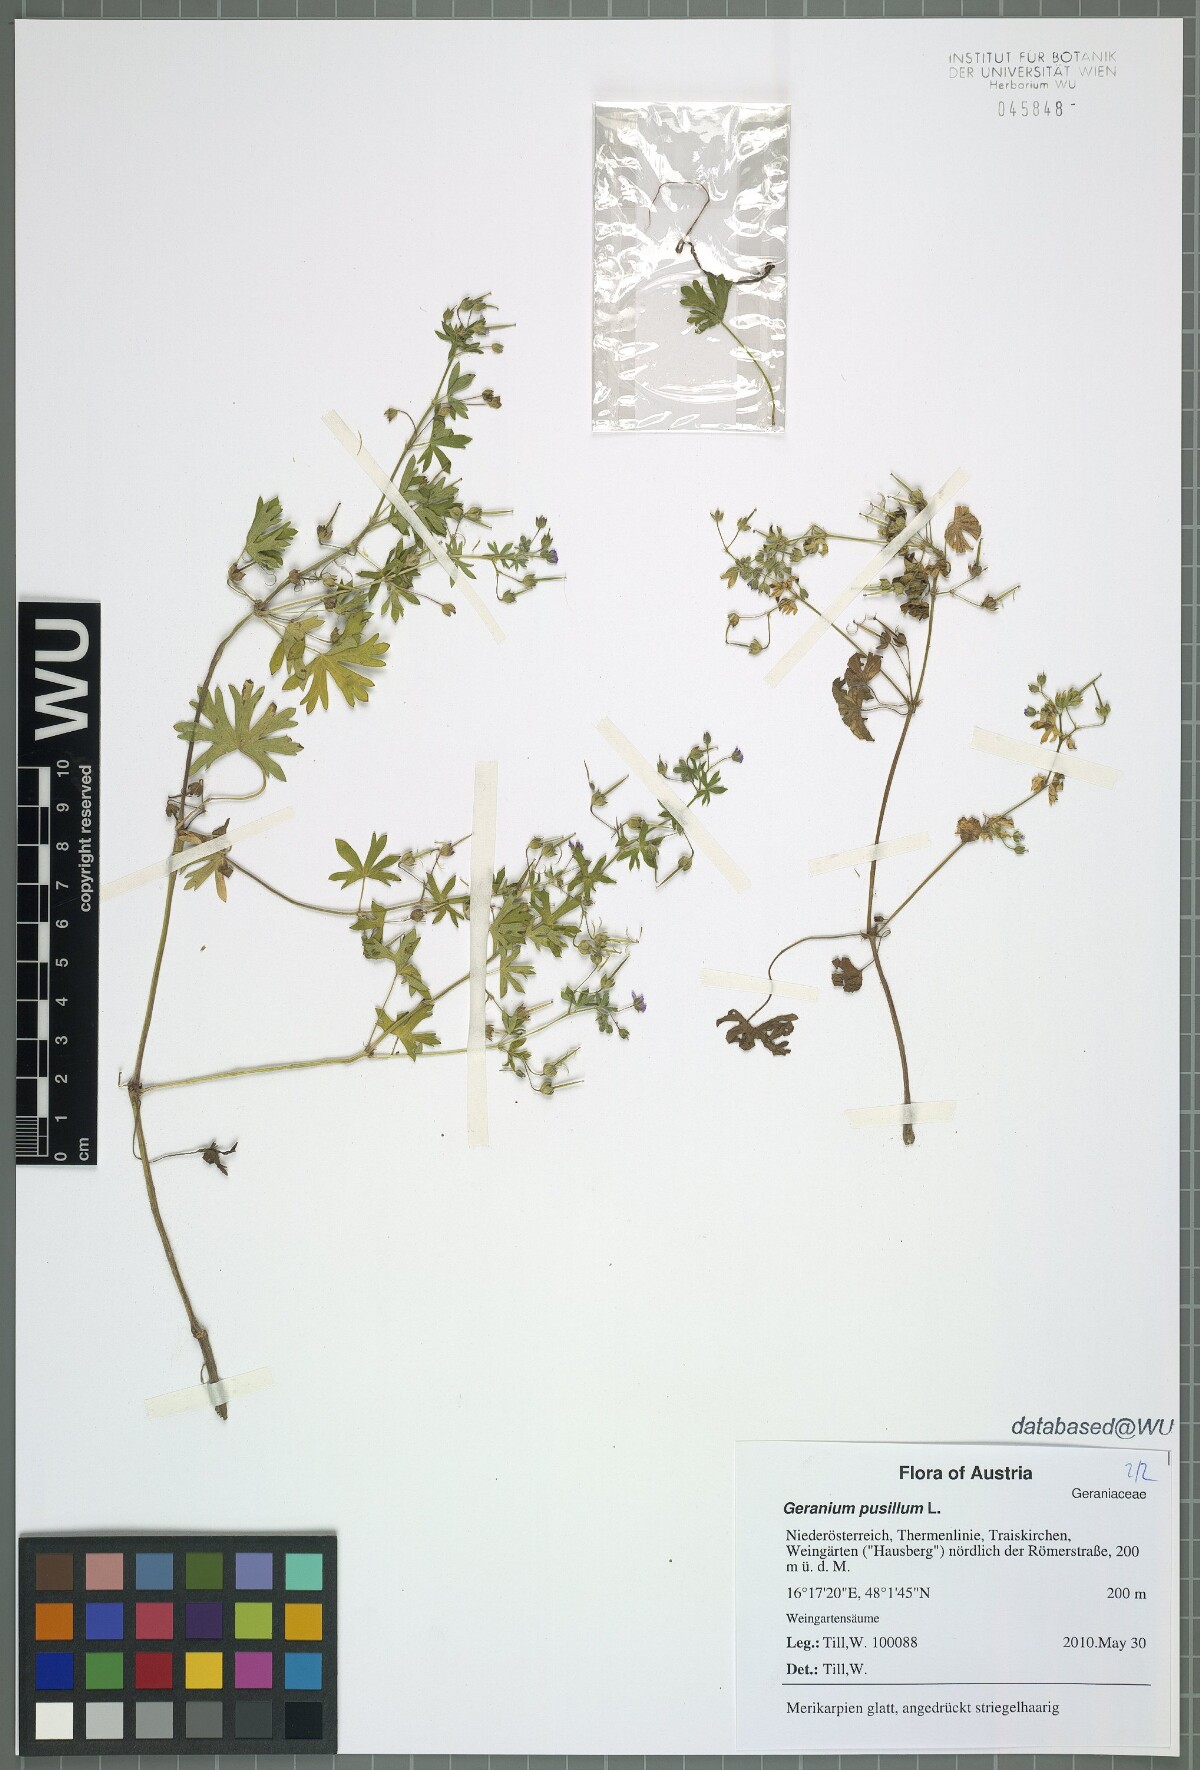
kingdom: Plantae
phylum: Tracheophyta
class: Magnoliopsida
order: Geraniales
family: Geraniaceae
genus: Geranium
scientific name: Geranium pusillum
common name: Small geranium
